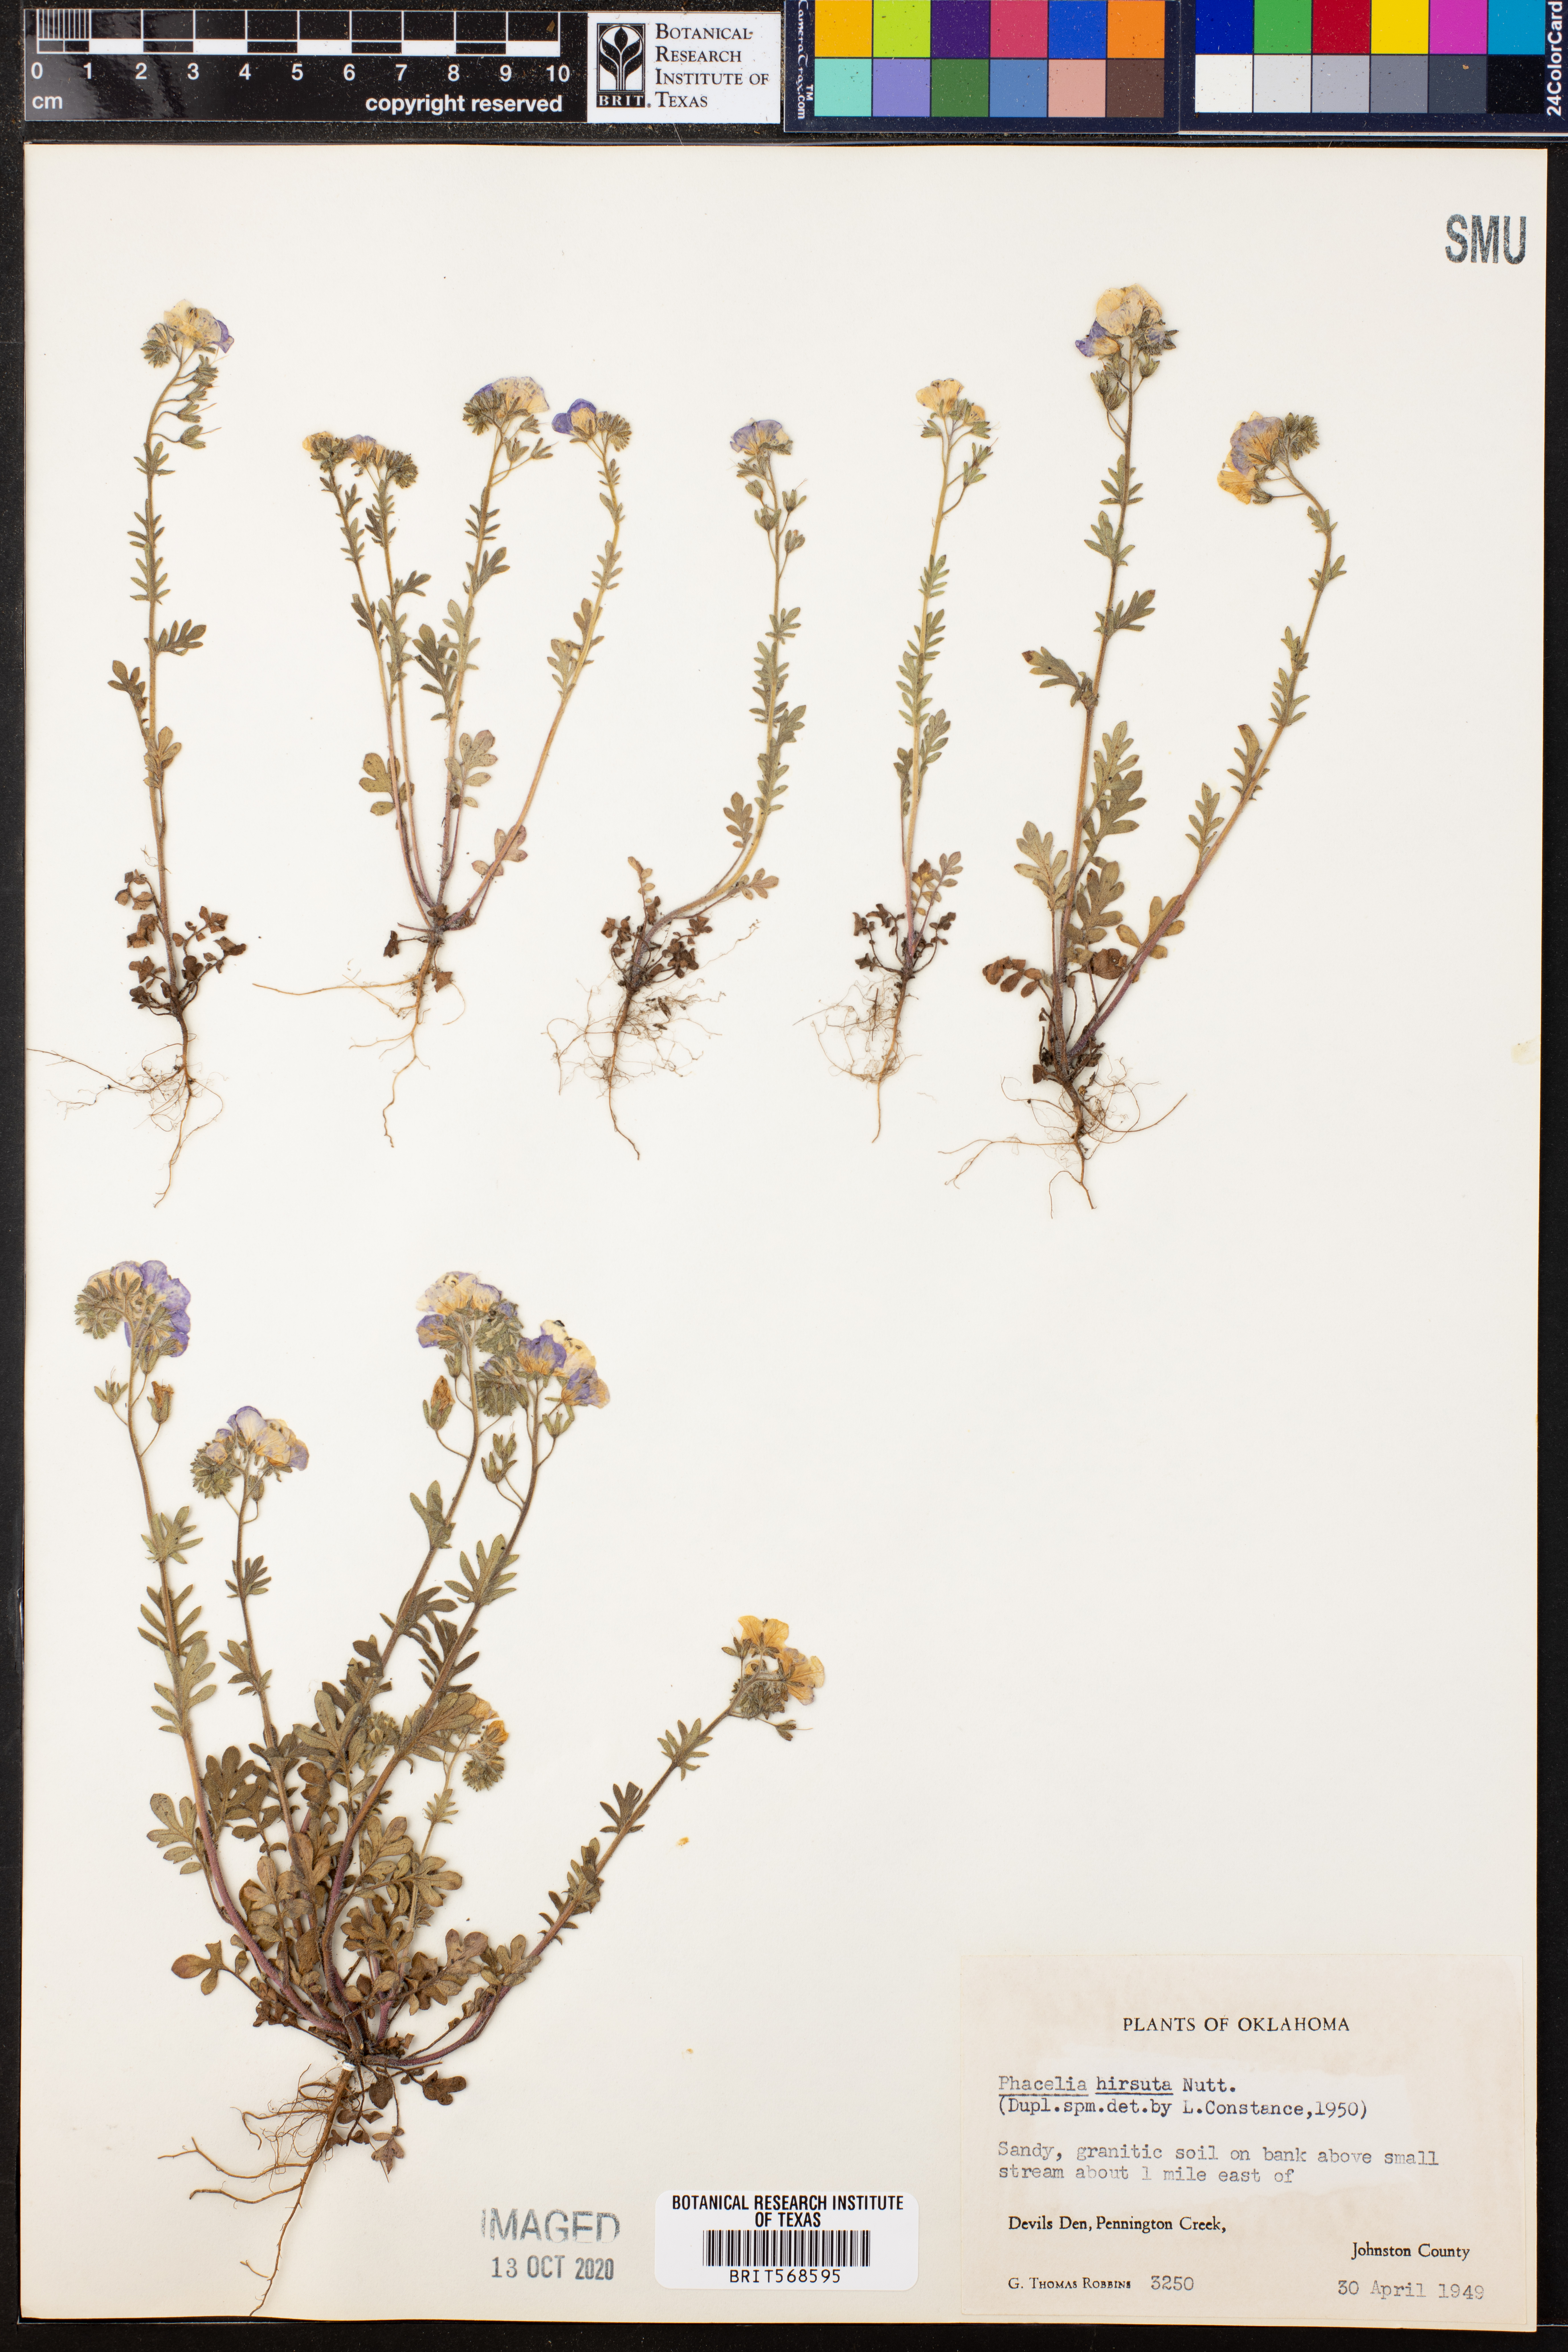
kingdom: Plantae
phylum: Tracheophyta
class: Magnoliopsida
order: Boraginales
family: Hydrophyllaceae
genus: Phacelia
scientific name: Phacelia hirsuta
